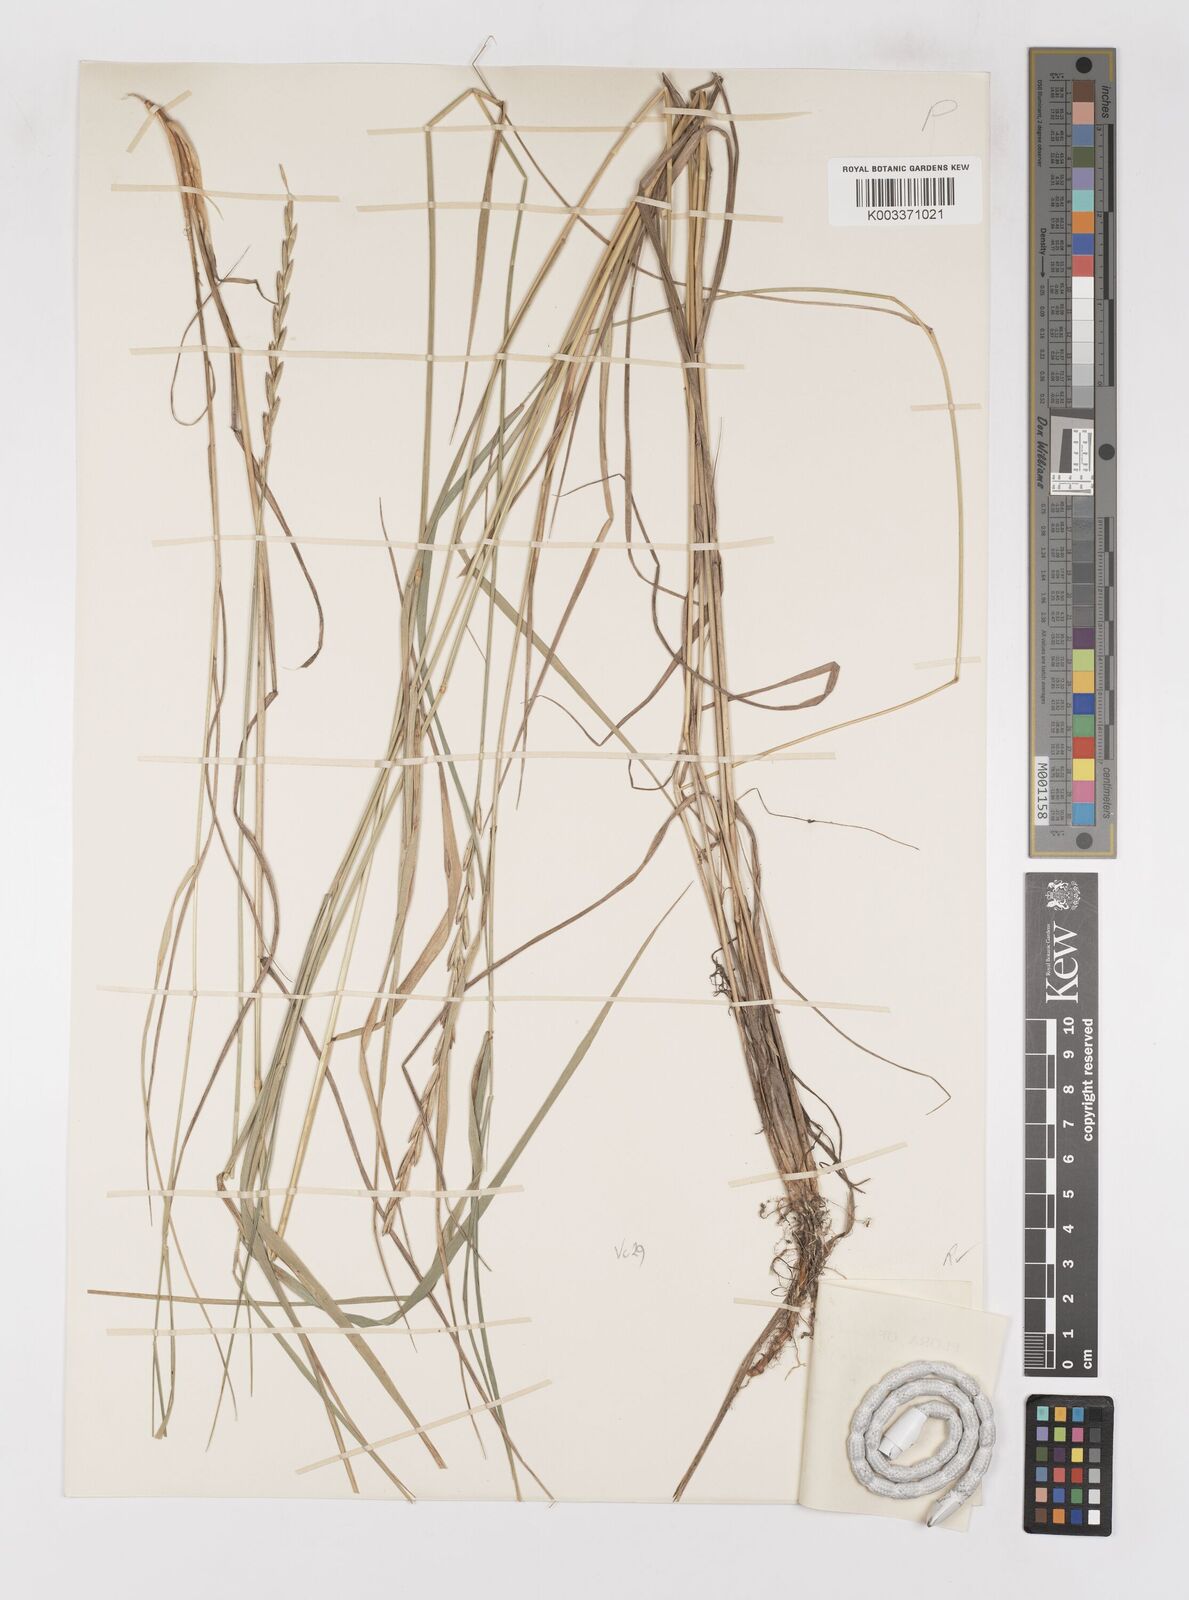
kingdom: Plantae
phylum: Tracheophyta
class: Liliopsida
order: Poales
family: Poaceae
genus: Elymus
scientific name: Elymus repens
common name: Quackgrass
